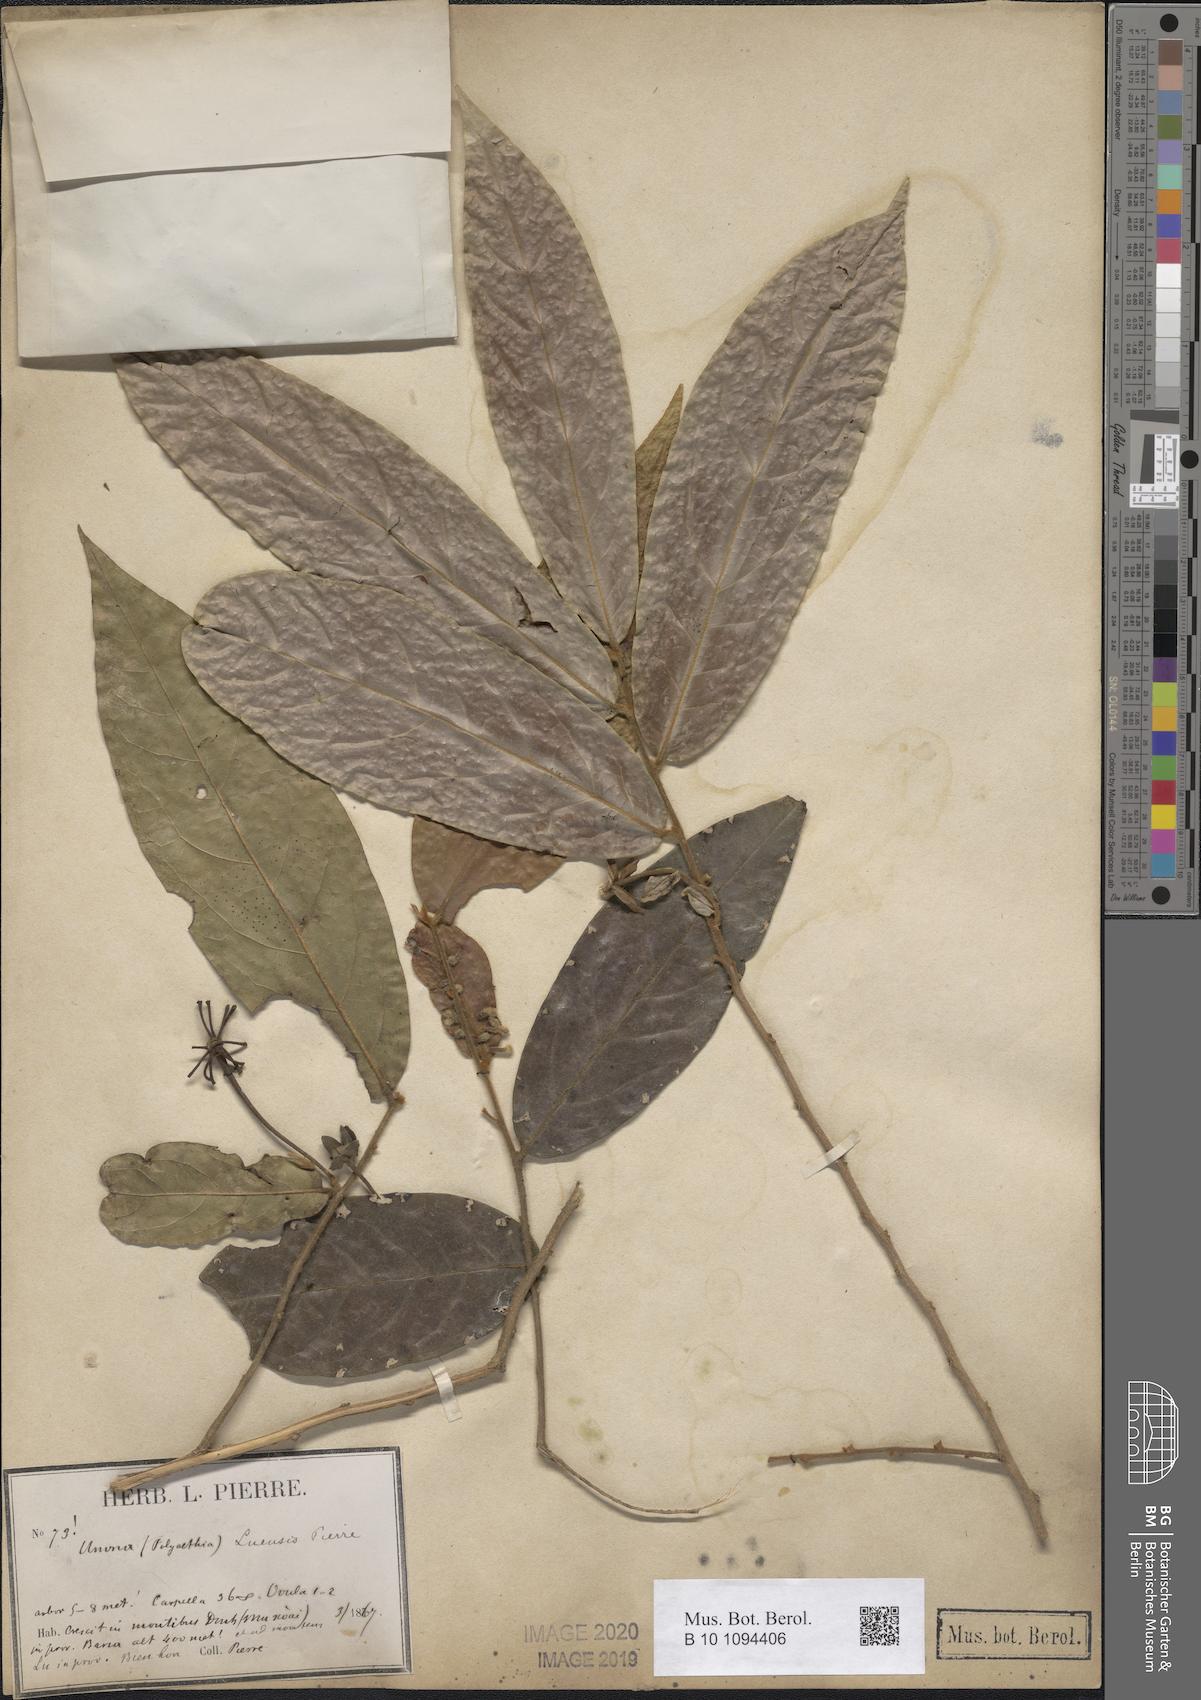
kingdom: Plantae
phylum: Tracheophyta
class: Magnoliopsida
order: Magnoliales
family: Annonaceae
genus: Polyalthia
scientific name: Polyalthia luensis
